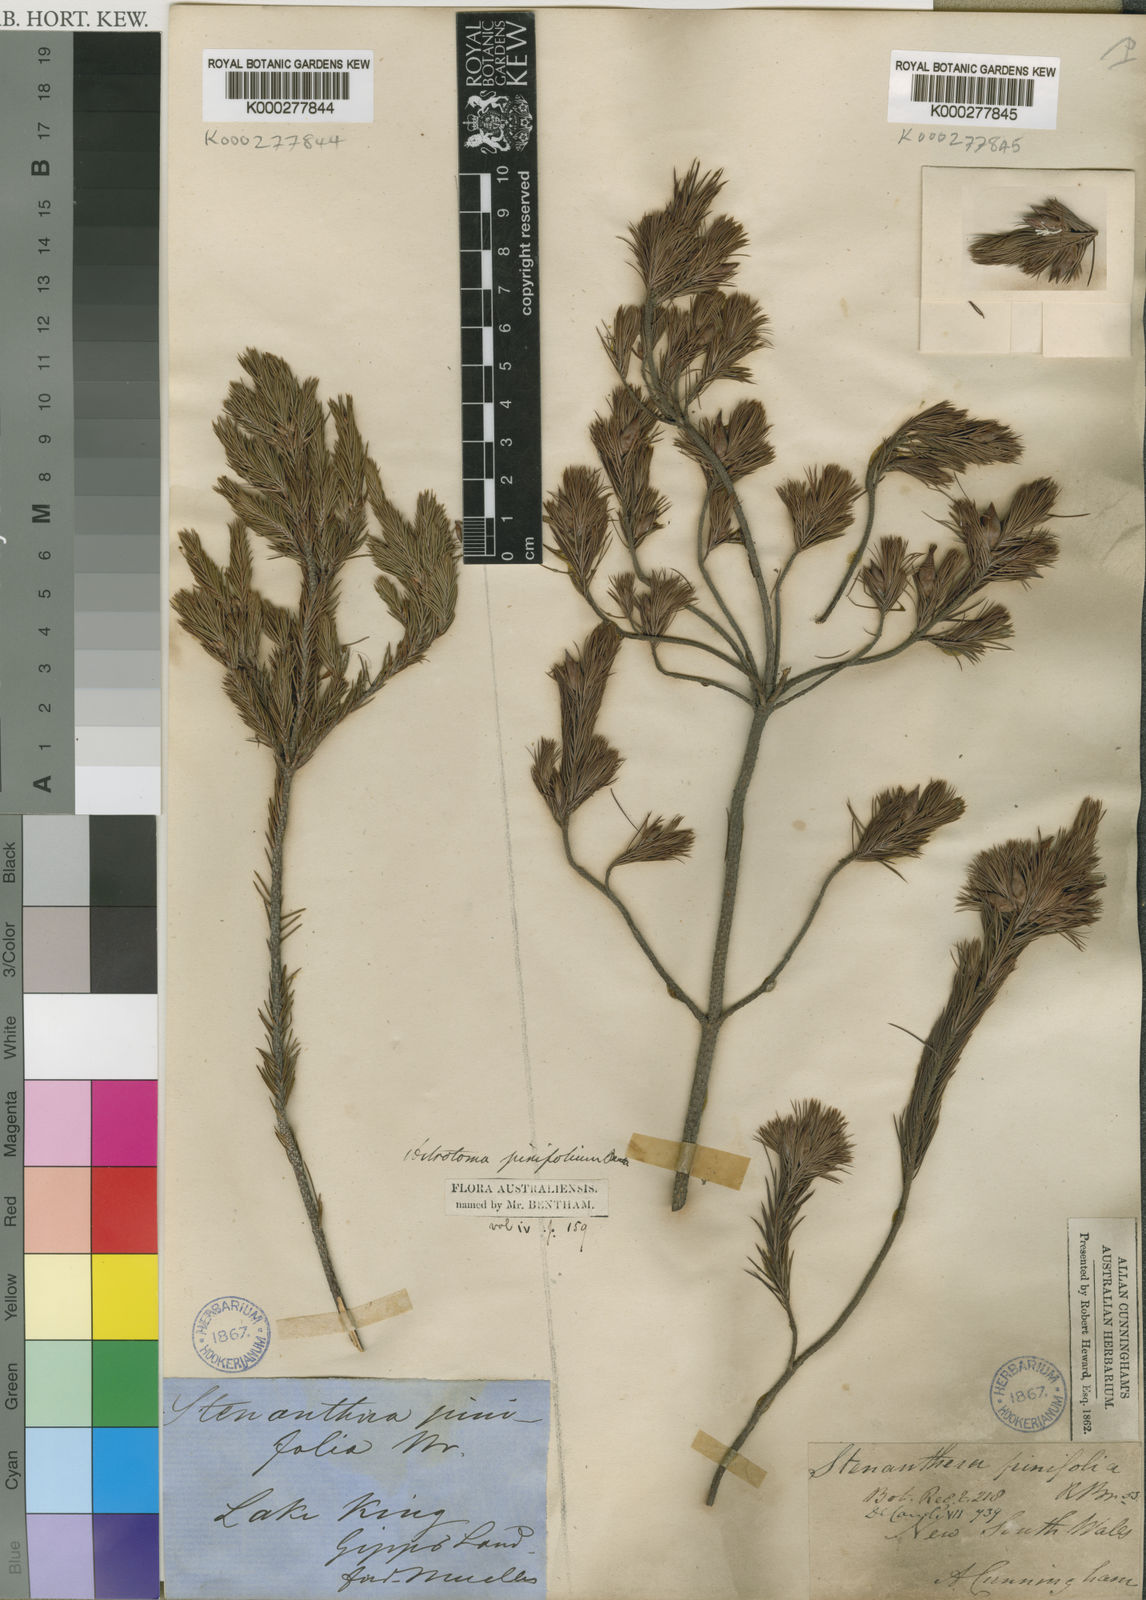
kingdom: Plantae
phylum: Tracheophyta
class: Magnoliopsida
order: Ericales
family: Ericaceae
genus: Stenanthera
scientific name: Stenanthera pinifolia
